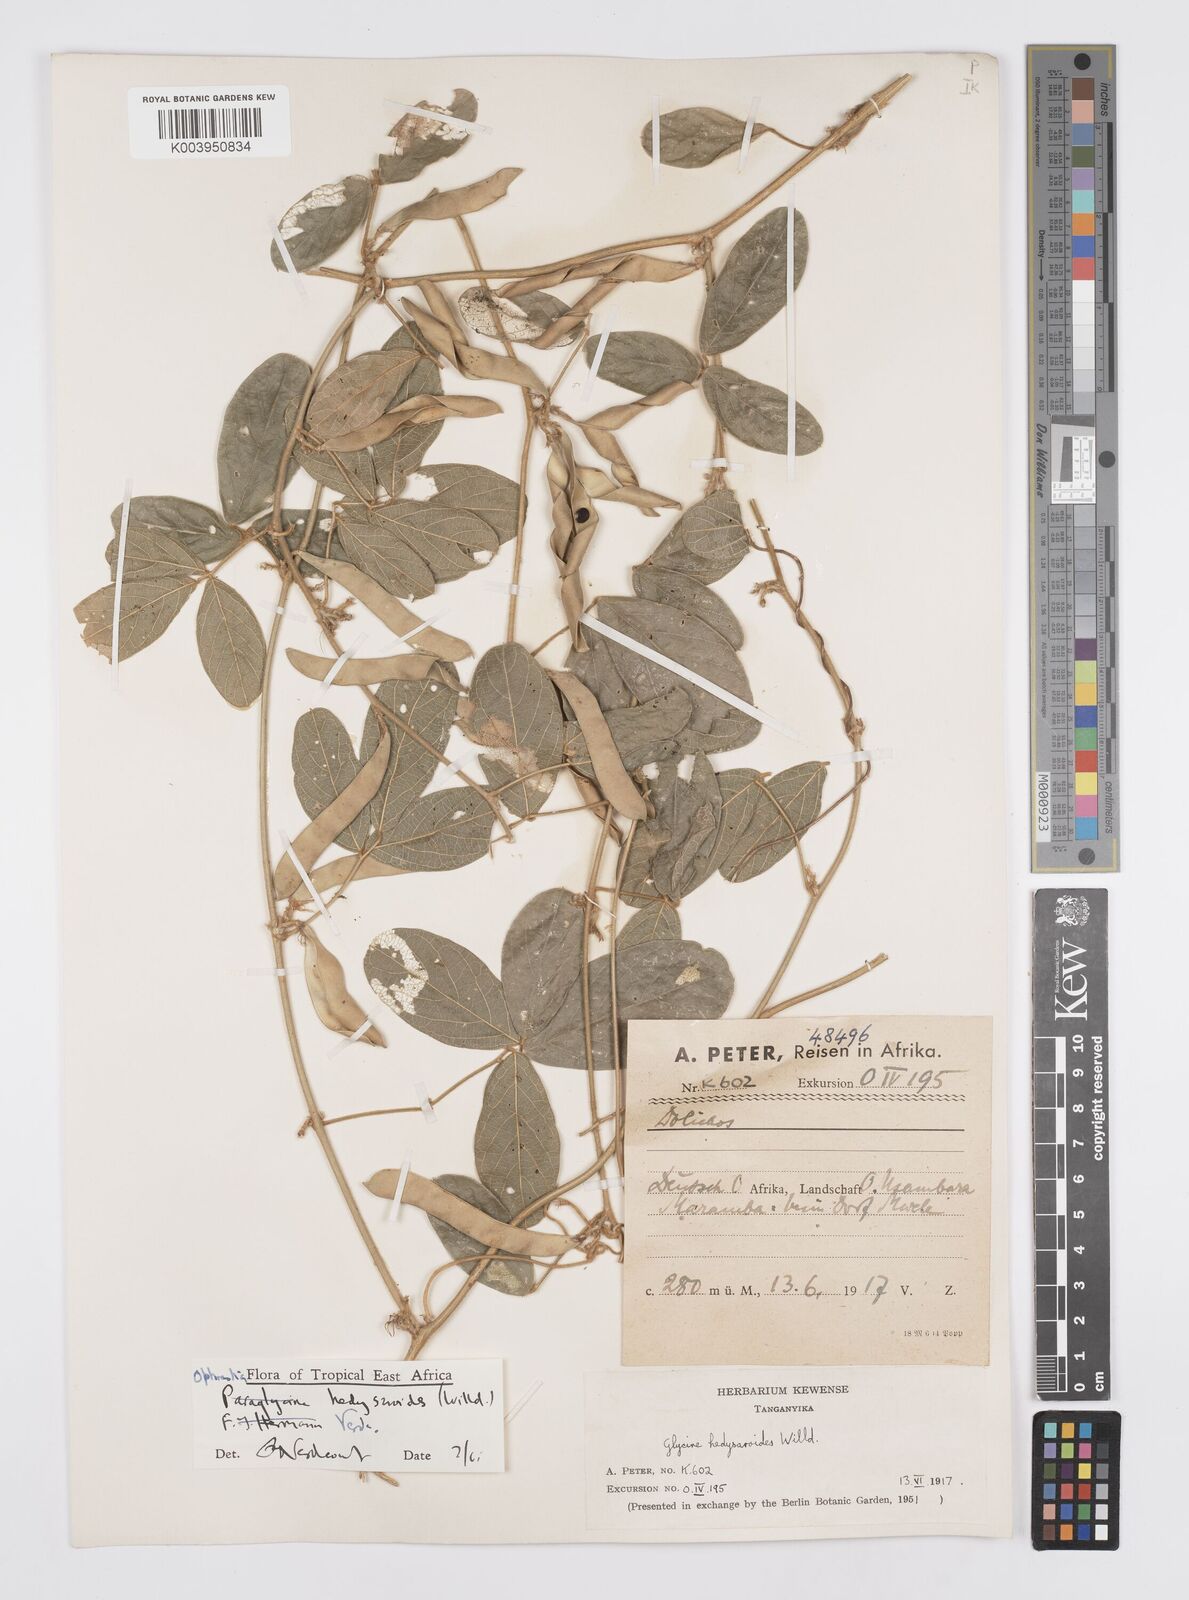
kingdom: Plantae
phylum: Tracheophyta
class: Magnoliopsida
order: Fabales
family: Fabaceae
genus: Ophrestia
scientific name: Ophrestia hedysaroides
